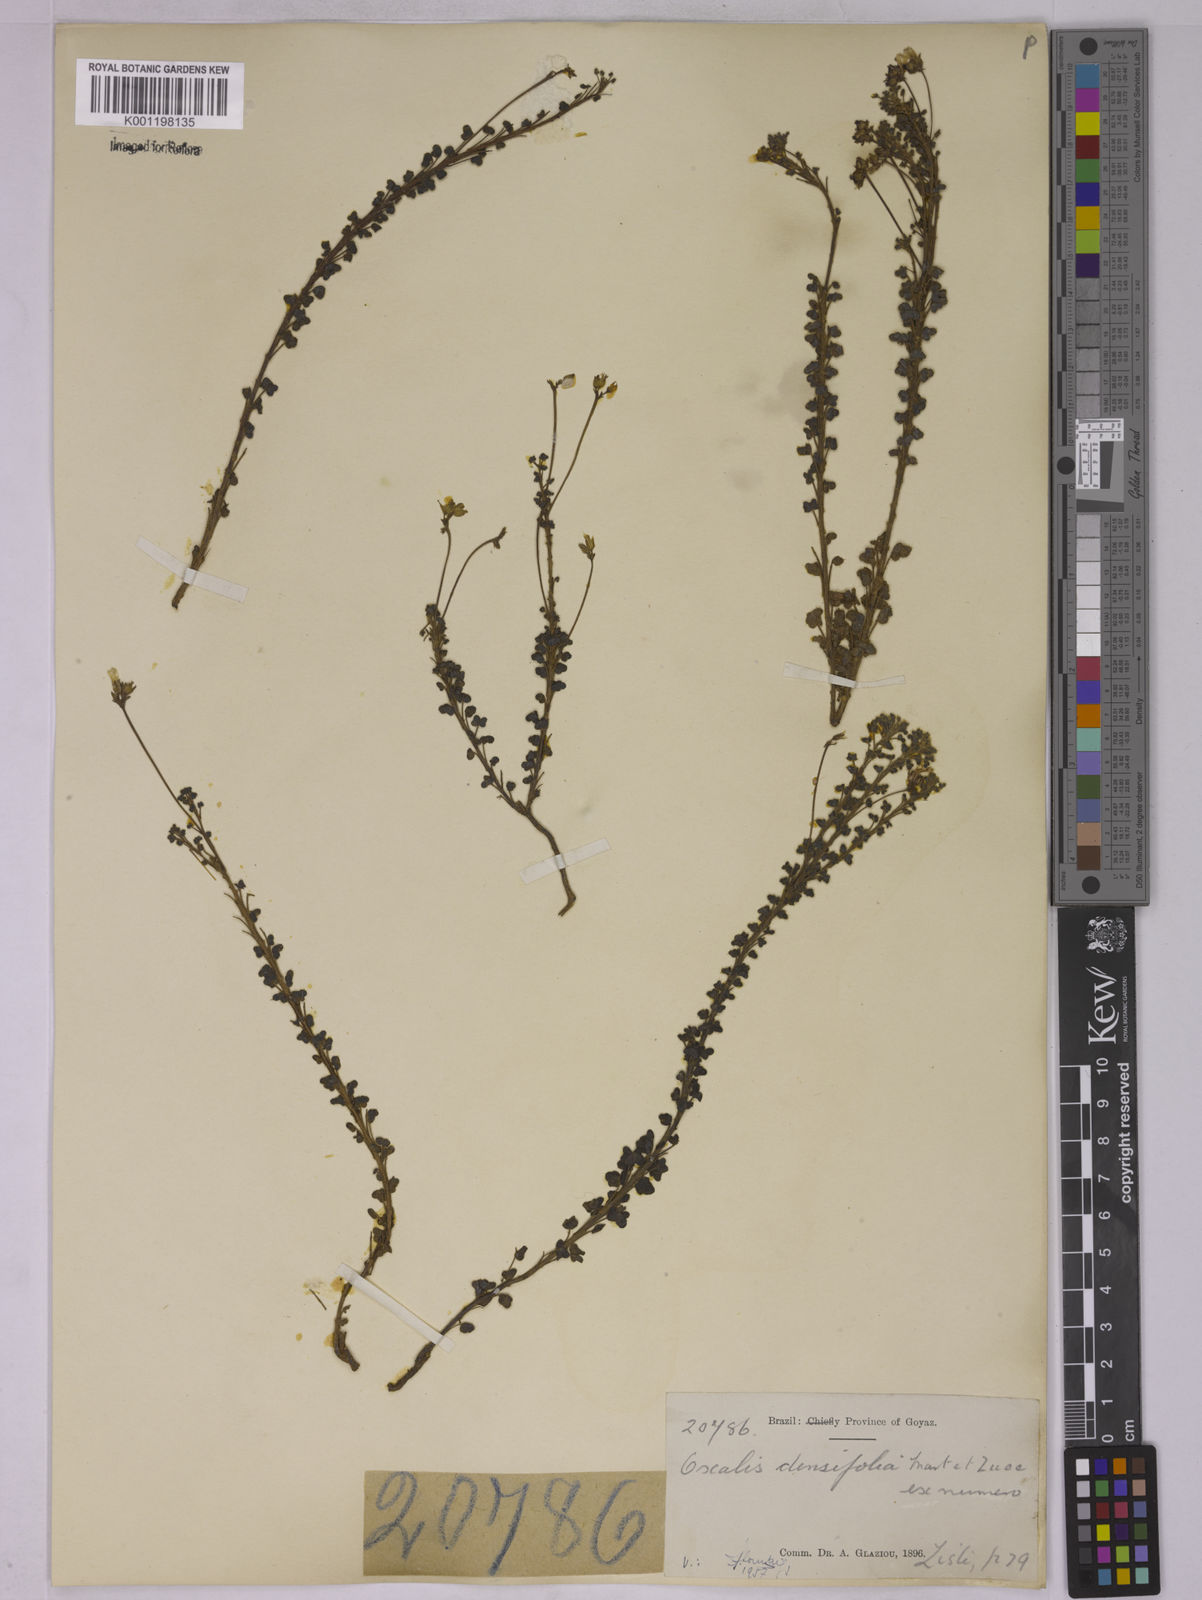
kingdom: Plantae
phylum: Tracheophyta
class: Magnoliopsida
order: Oxalidales
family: Oxalidaceae
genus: Oxalis
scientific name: Oxalis densifolia
